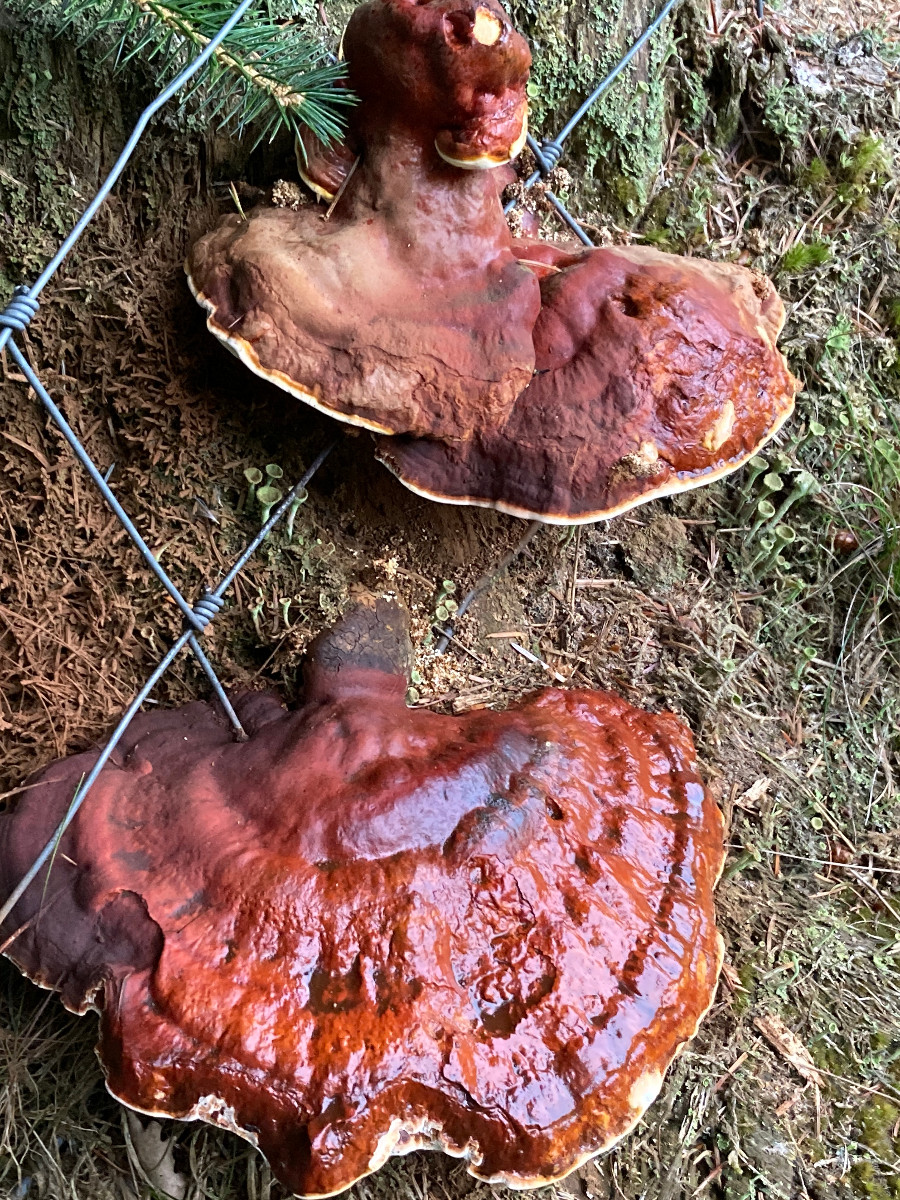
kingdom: Fungi
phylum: Basidiomycota
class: Agaricomycetes
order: Polyporales
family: Polyporaceae
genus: Ganoderma
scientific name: Ganoderma lucidum
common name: skinnende lakporesvamp
